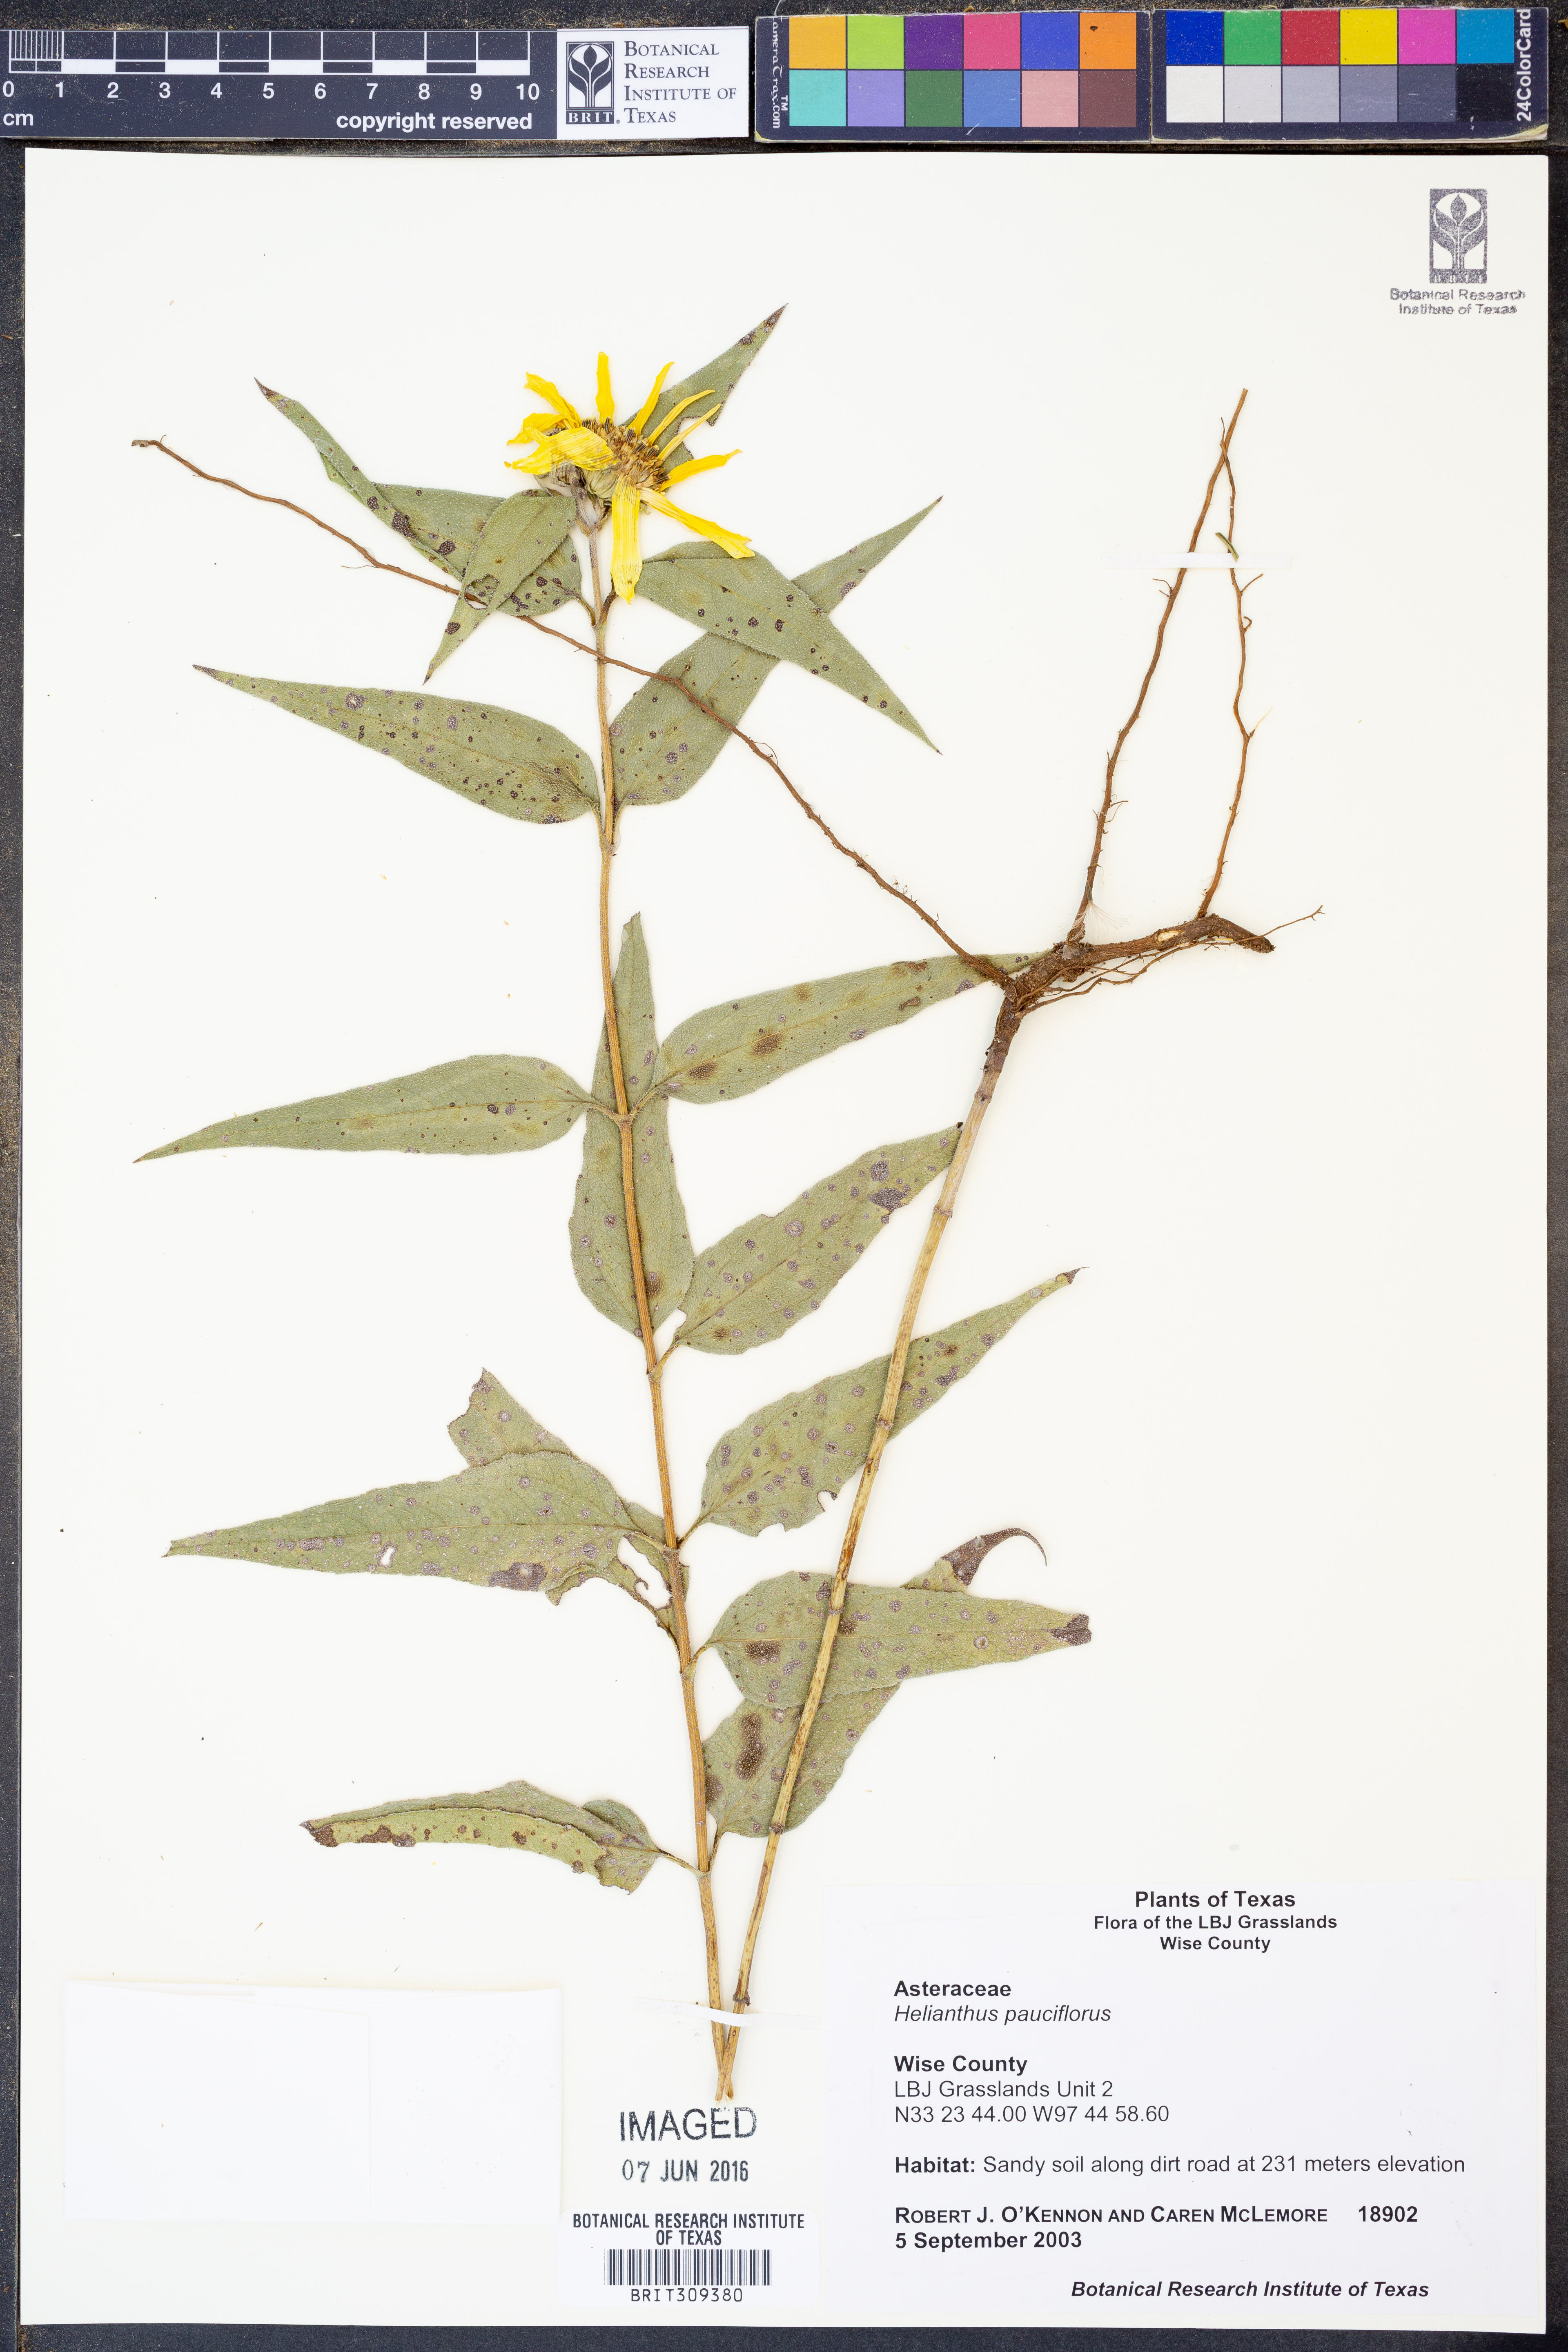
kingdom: Plantae
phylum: Tracheophyta
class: Magnoliopsida
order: Asterales
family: Asteraceae
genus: Helianthus
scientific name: Helianthus pauciflorus
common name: Stiff sunflower
